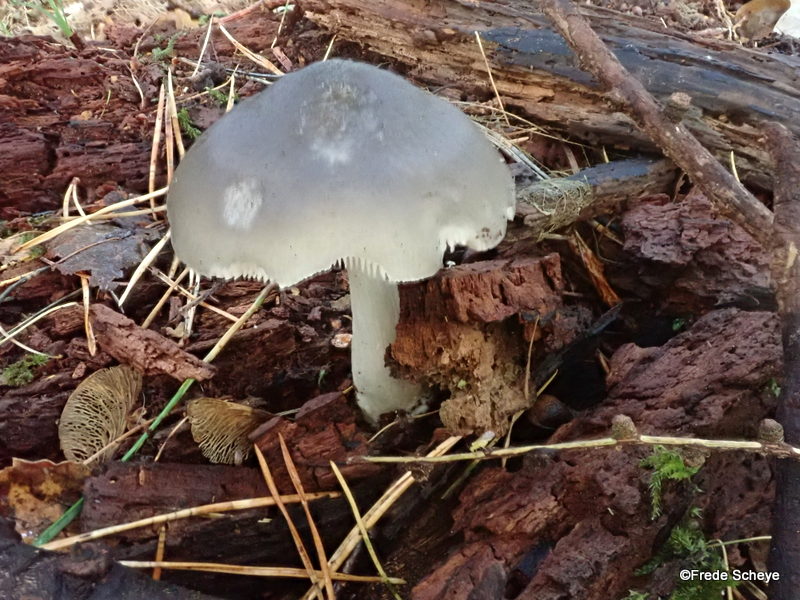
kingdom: Fungi
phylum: Basidiomycota
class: Agaricomycetes
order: Agaricales
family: Pluteaceae
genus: Pluteus
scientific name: Pluteus salicinus
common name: stiv skærmhat
